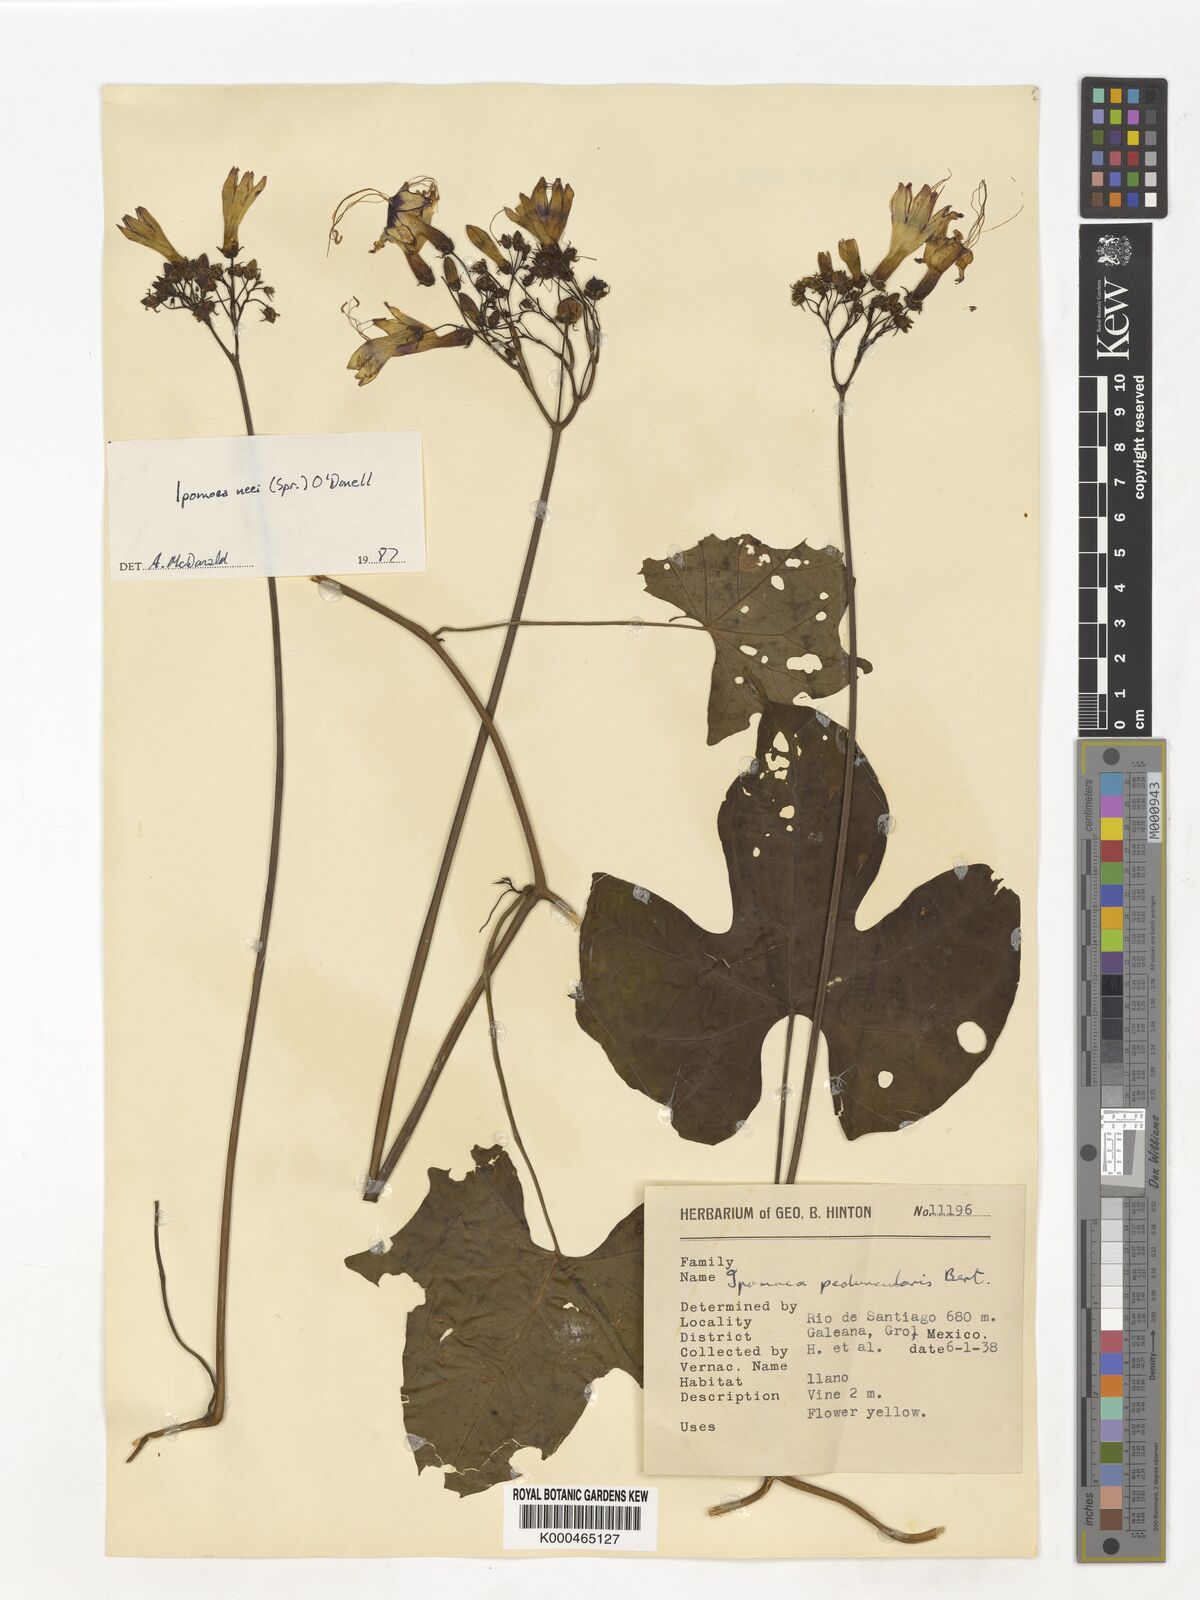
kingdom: Plantae
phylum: Tracheophyta
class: Magnoliopsida
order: Solanales
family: Convolvulaceae
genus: Ipomoea
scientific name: Ipomoea
